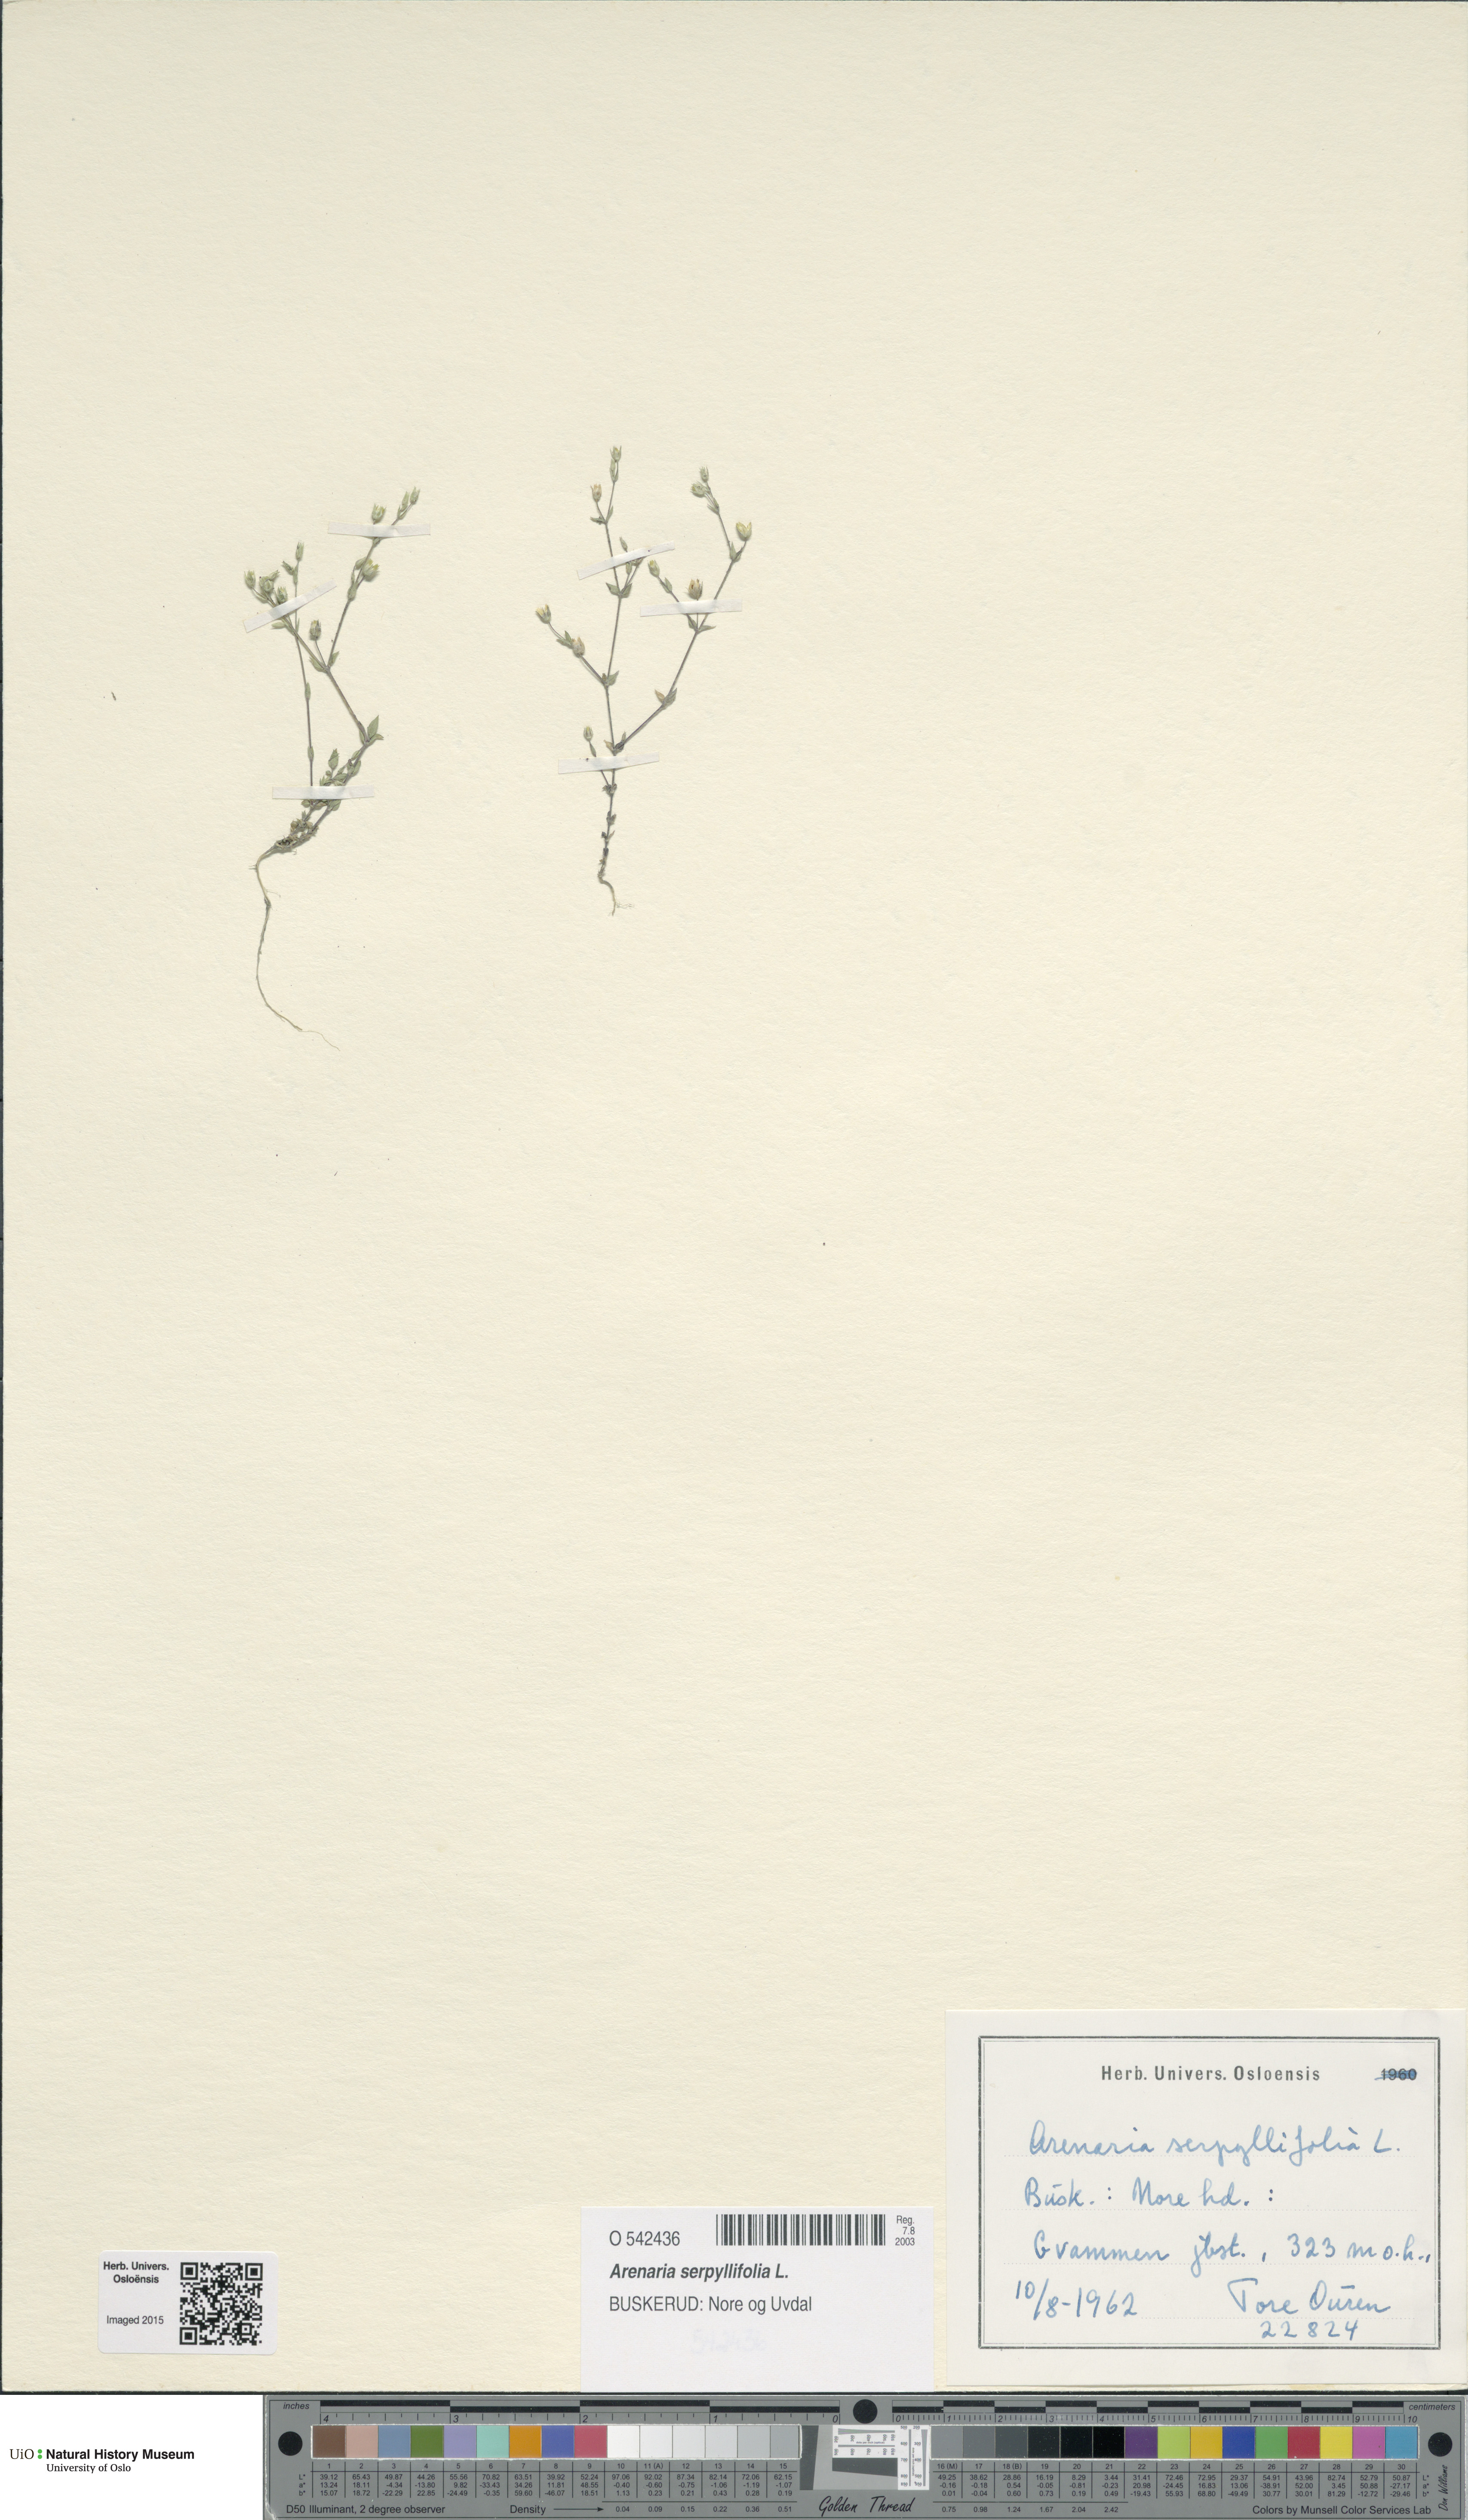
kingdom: Plantae
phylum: Tracheophyta
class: Magnoliopsida
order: Caryophyllales
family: Caryophyllaceae
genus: Arenaria
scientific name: Arenaria serpyllifolia
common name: Thyme-leaved sandwort
